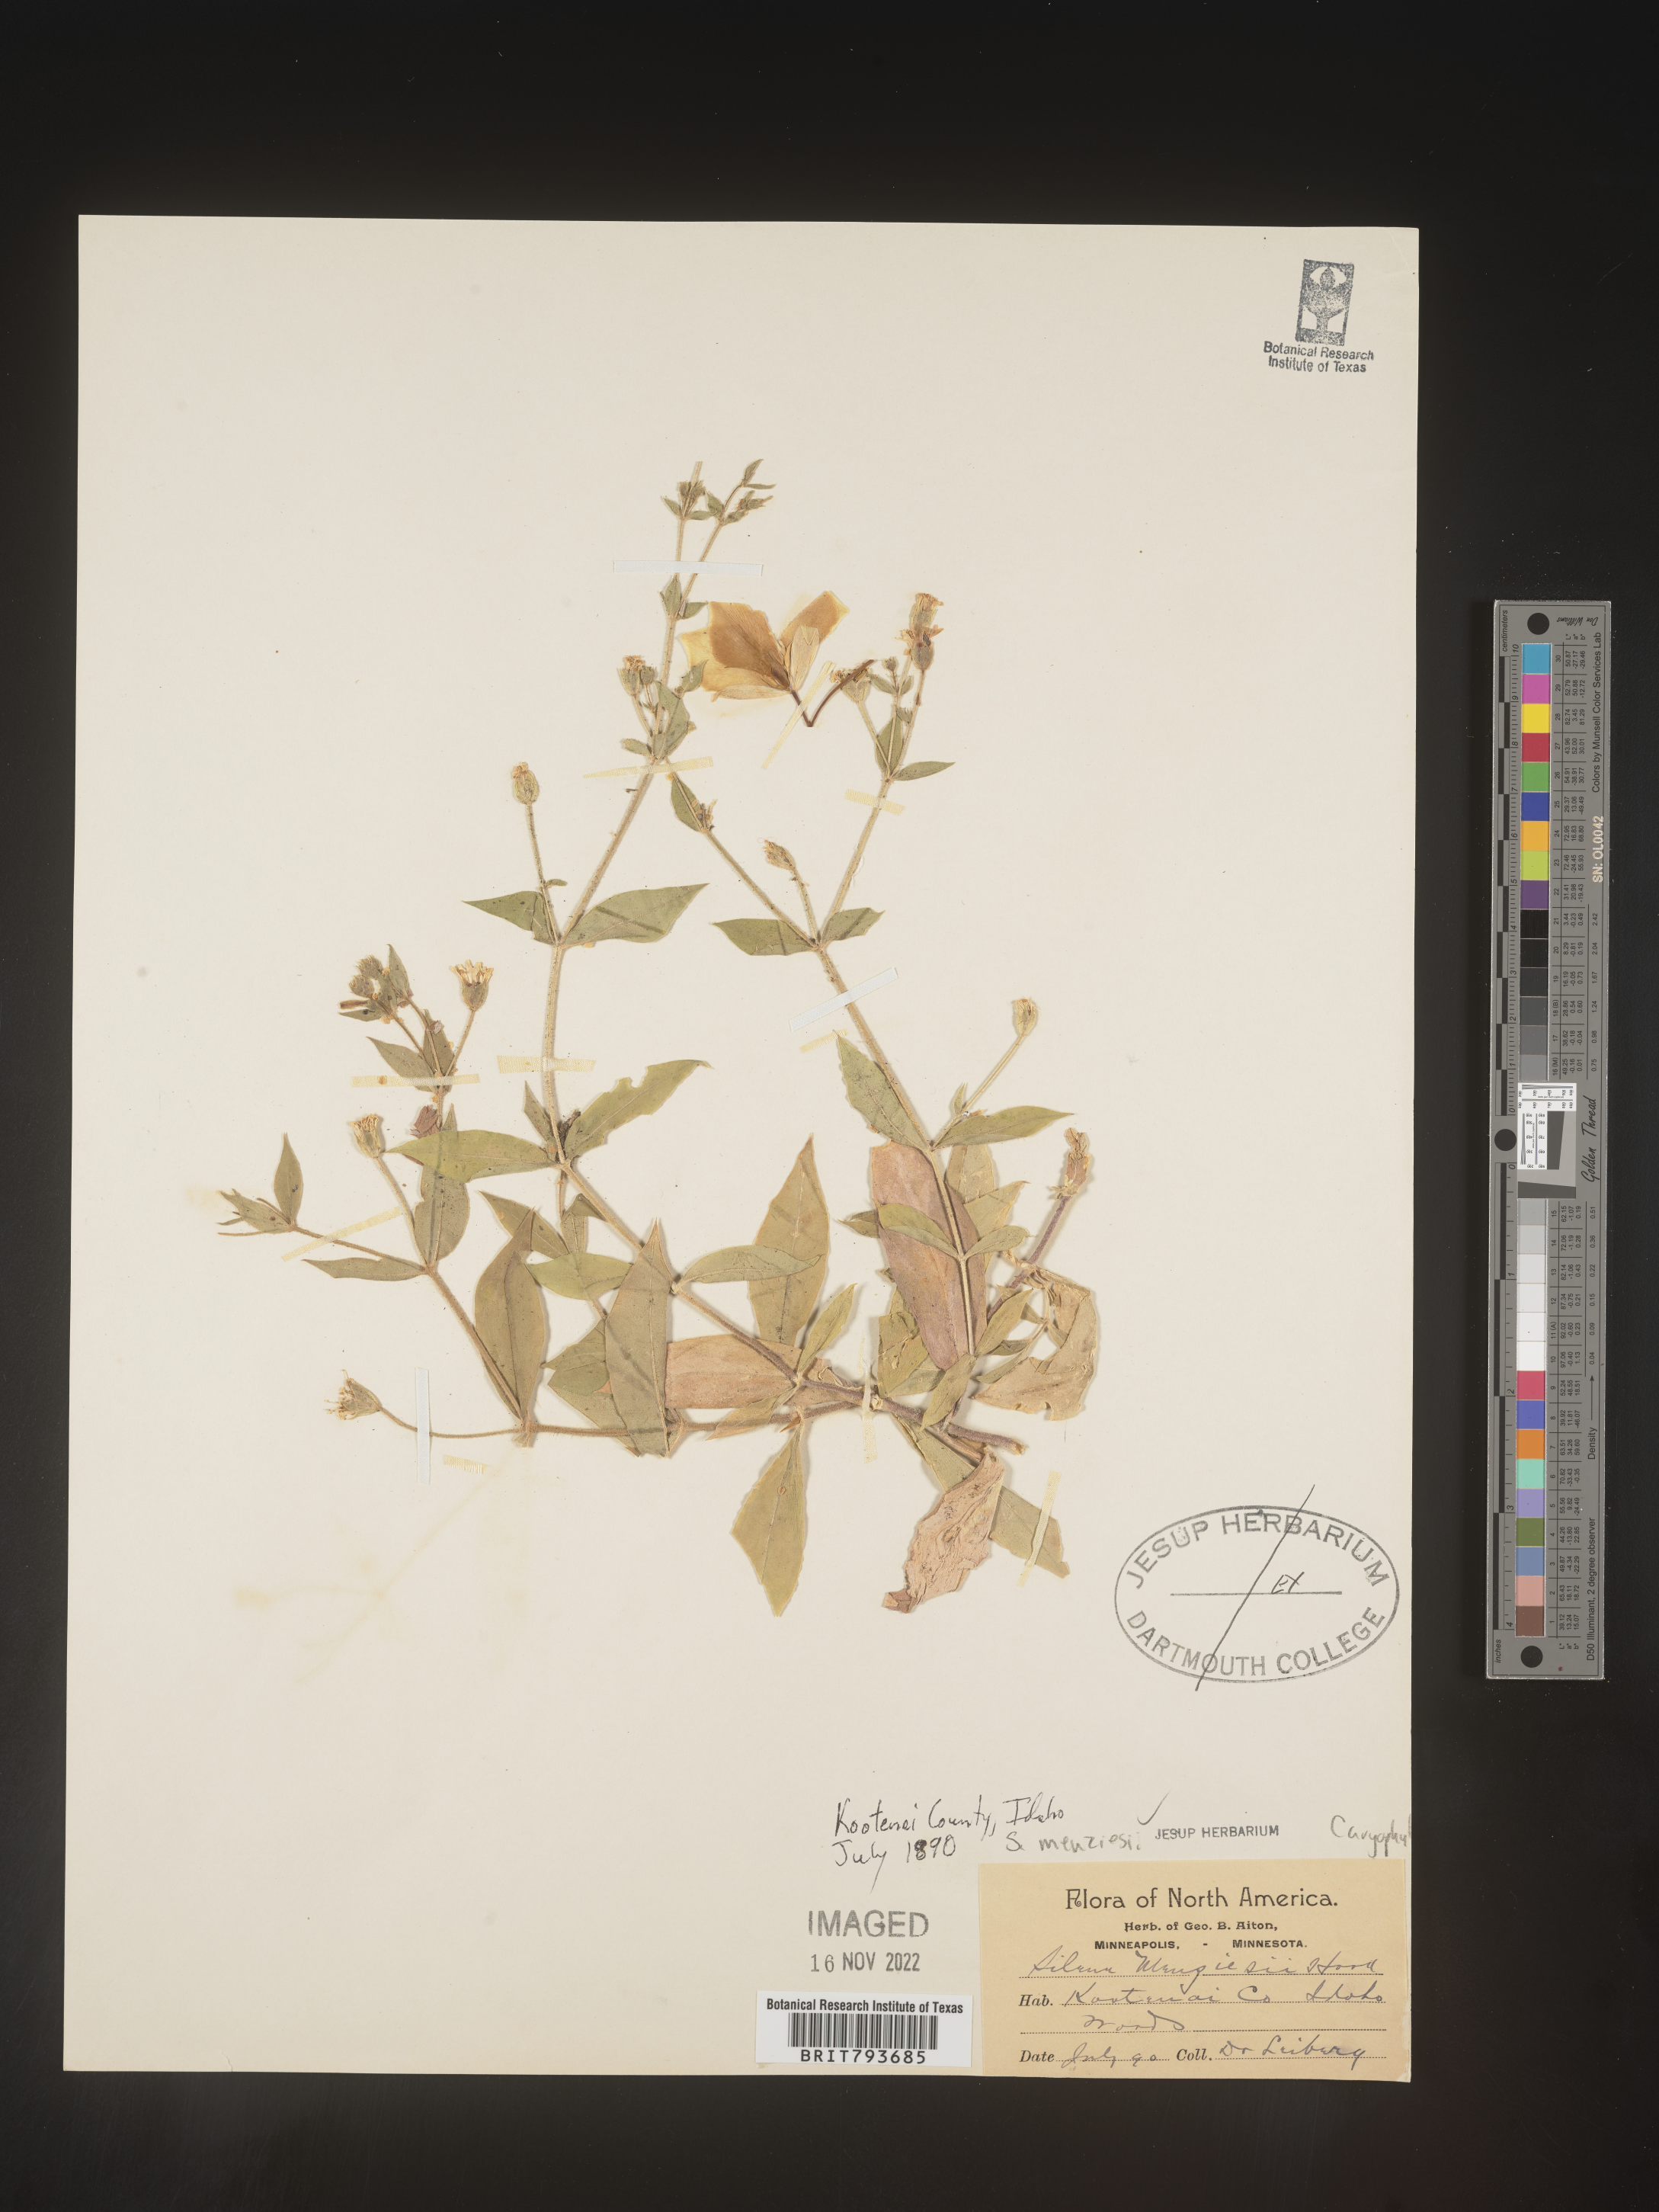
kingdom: Plantae
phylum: Tracheophyta
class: Magnoliopsida
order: Caryophyllales
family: Caryophyllaceae
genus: Silene
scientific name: Silene menziesii
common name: Menzies's catchfly
